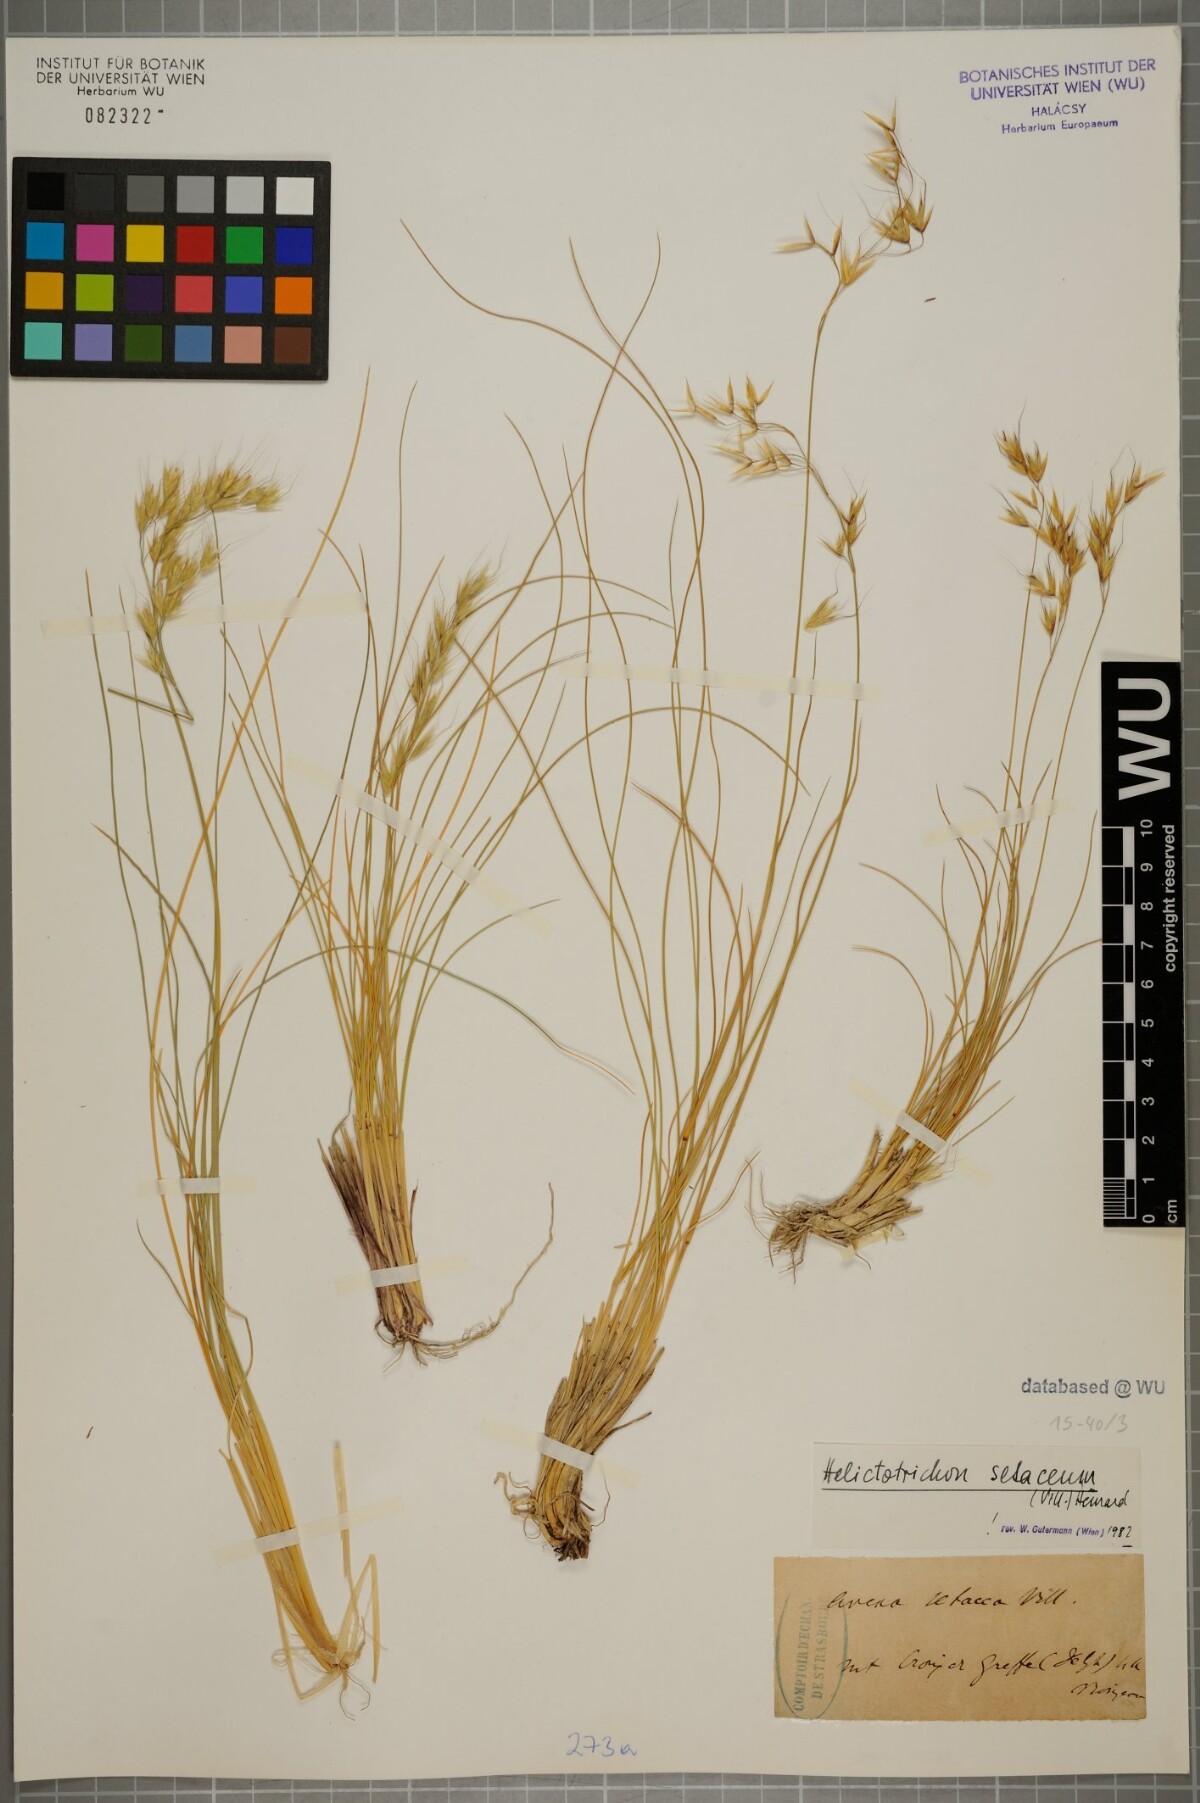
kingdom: Plantae
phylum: Tracheophyta
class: Liliopsida
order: Poales
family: Poaceae
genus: Helictotrichon
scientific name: Helictotrichon setaceum
